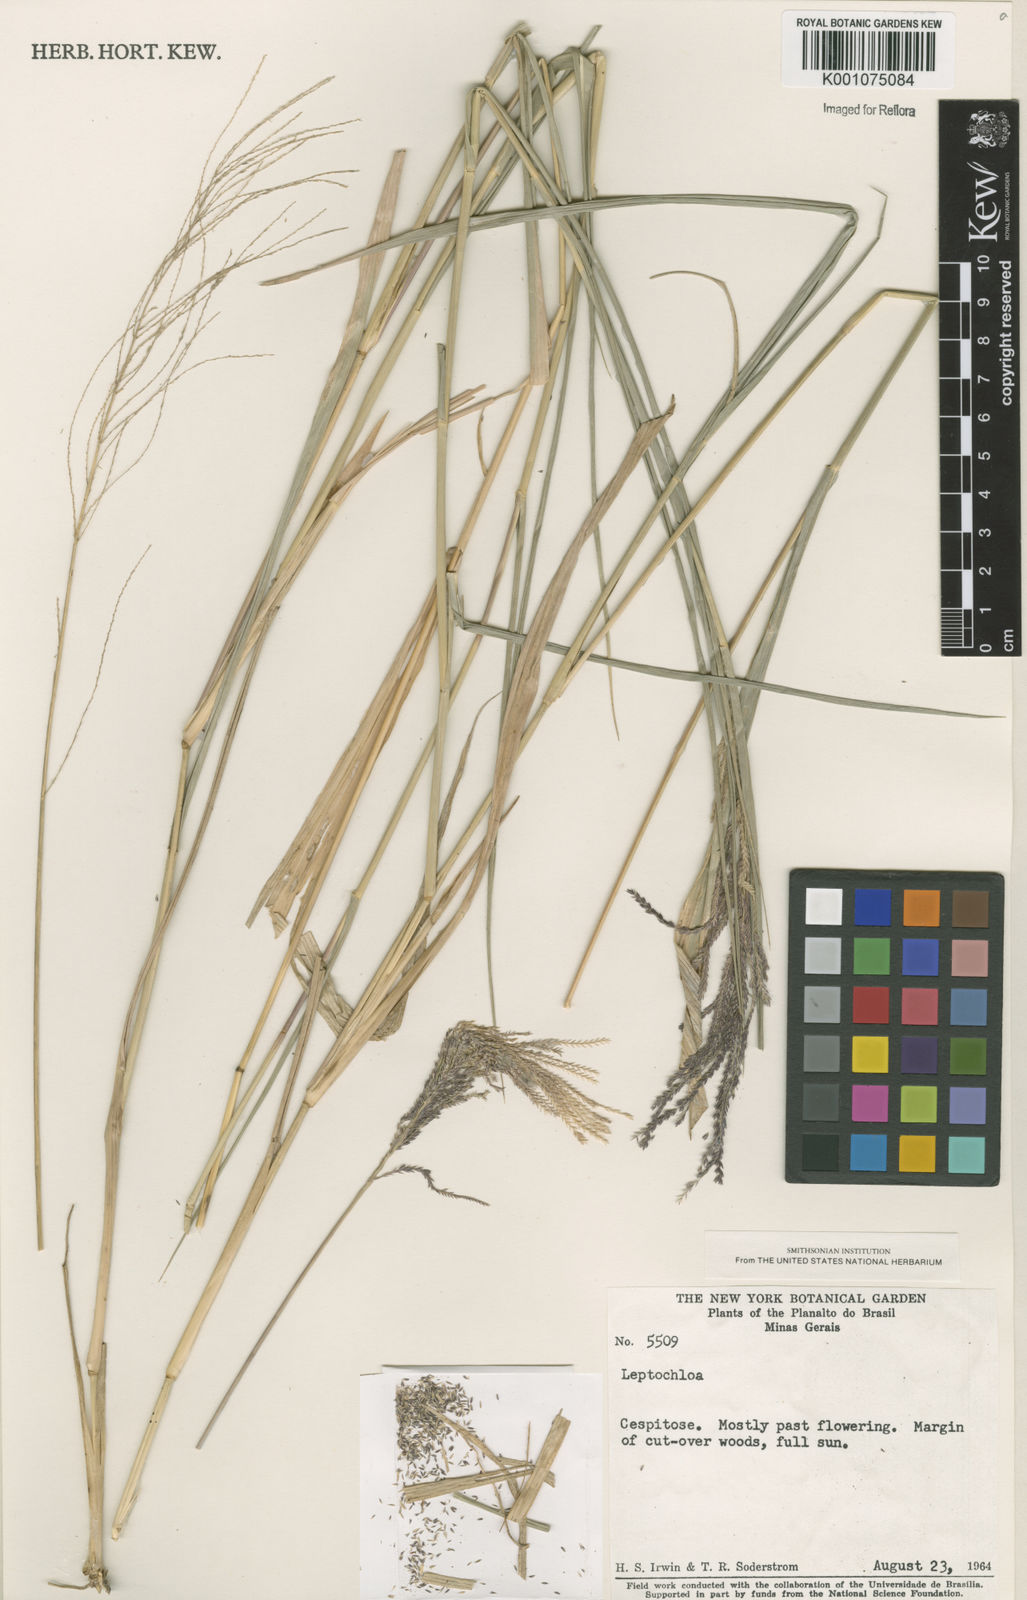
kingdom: Plantae
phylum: Tracheophyta
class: Liliopsida
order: Poales
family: Poaceae
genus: Leptochloa
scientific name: Leptochloa virgata
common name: Tropical sprangletop
